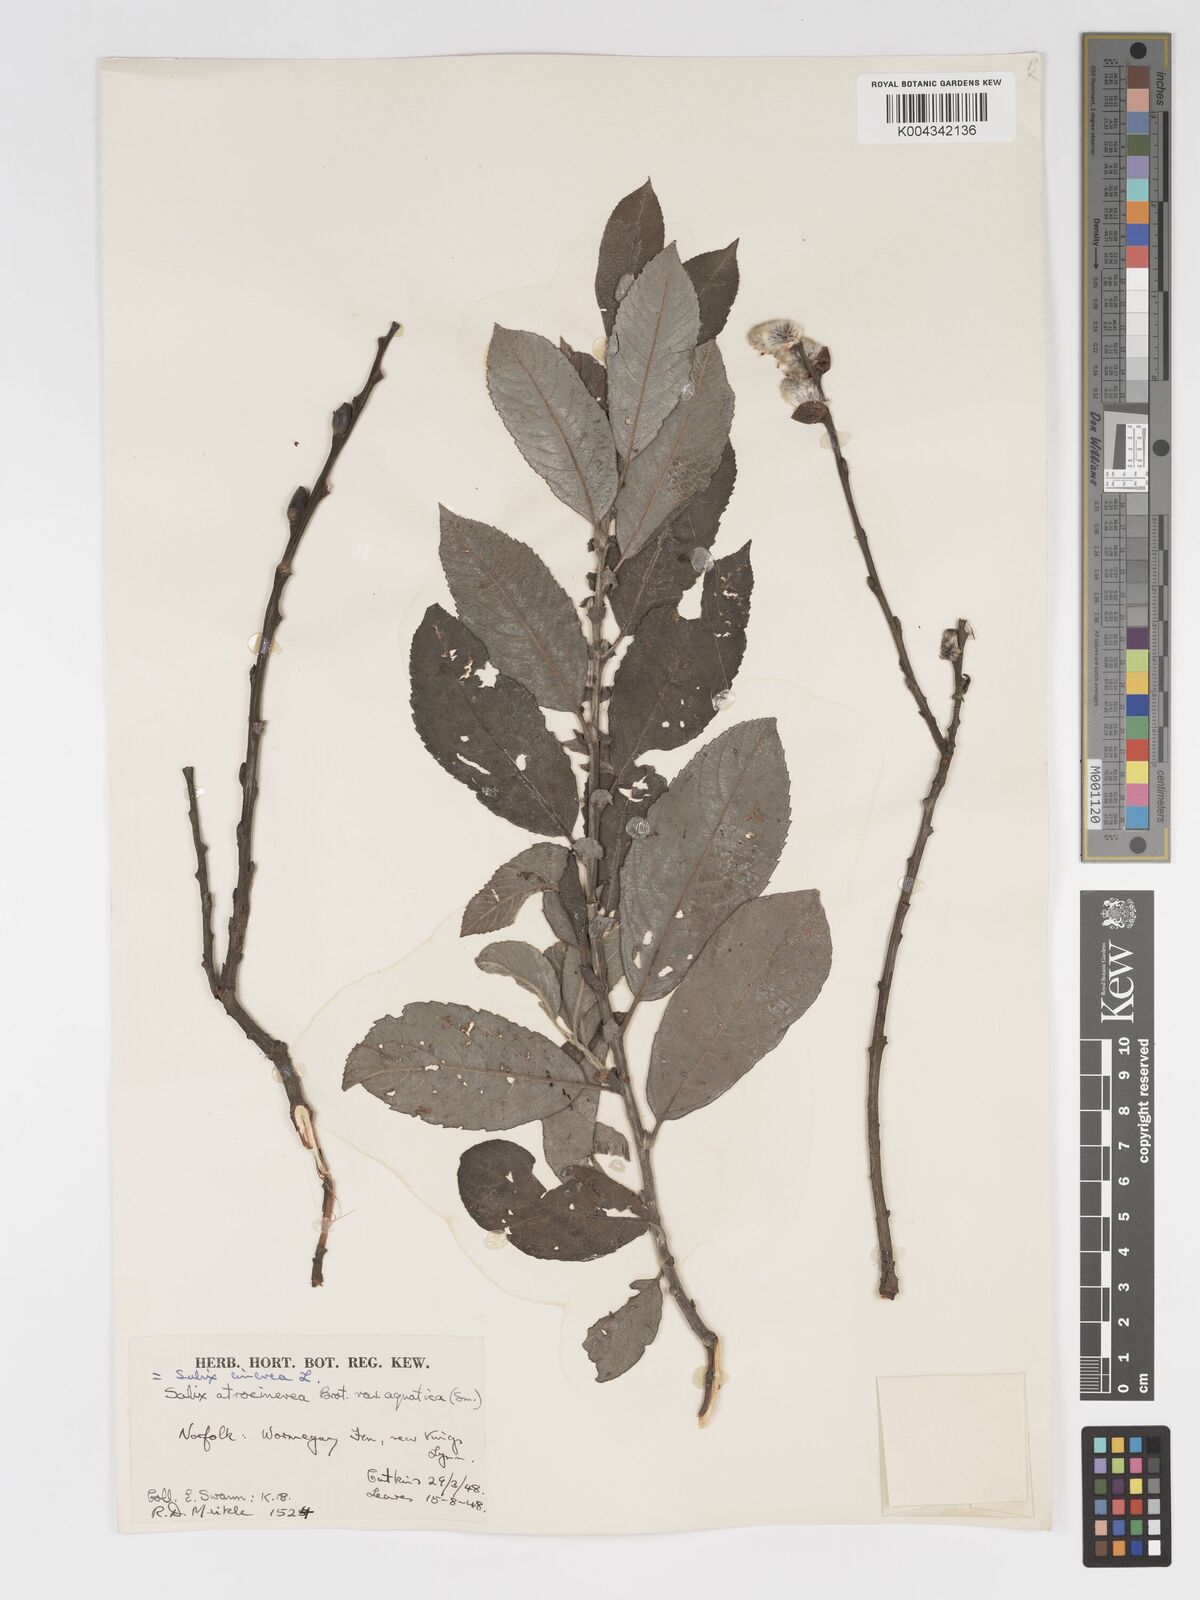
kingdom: Plantae
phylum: Tracheophyta
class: Magnoliopsida
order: Malpighiales
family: Salicaceae
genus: Salix
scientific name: Salix
